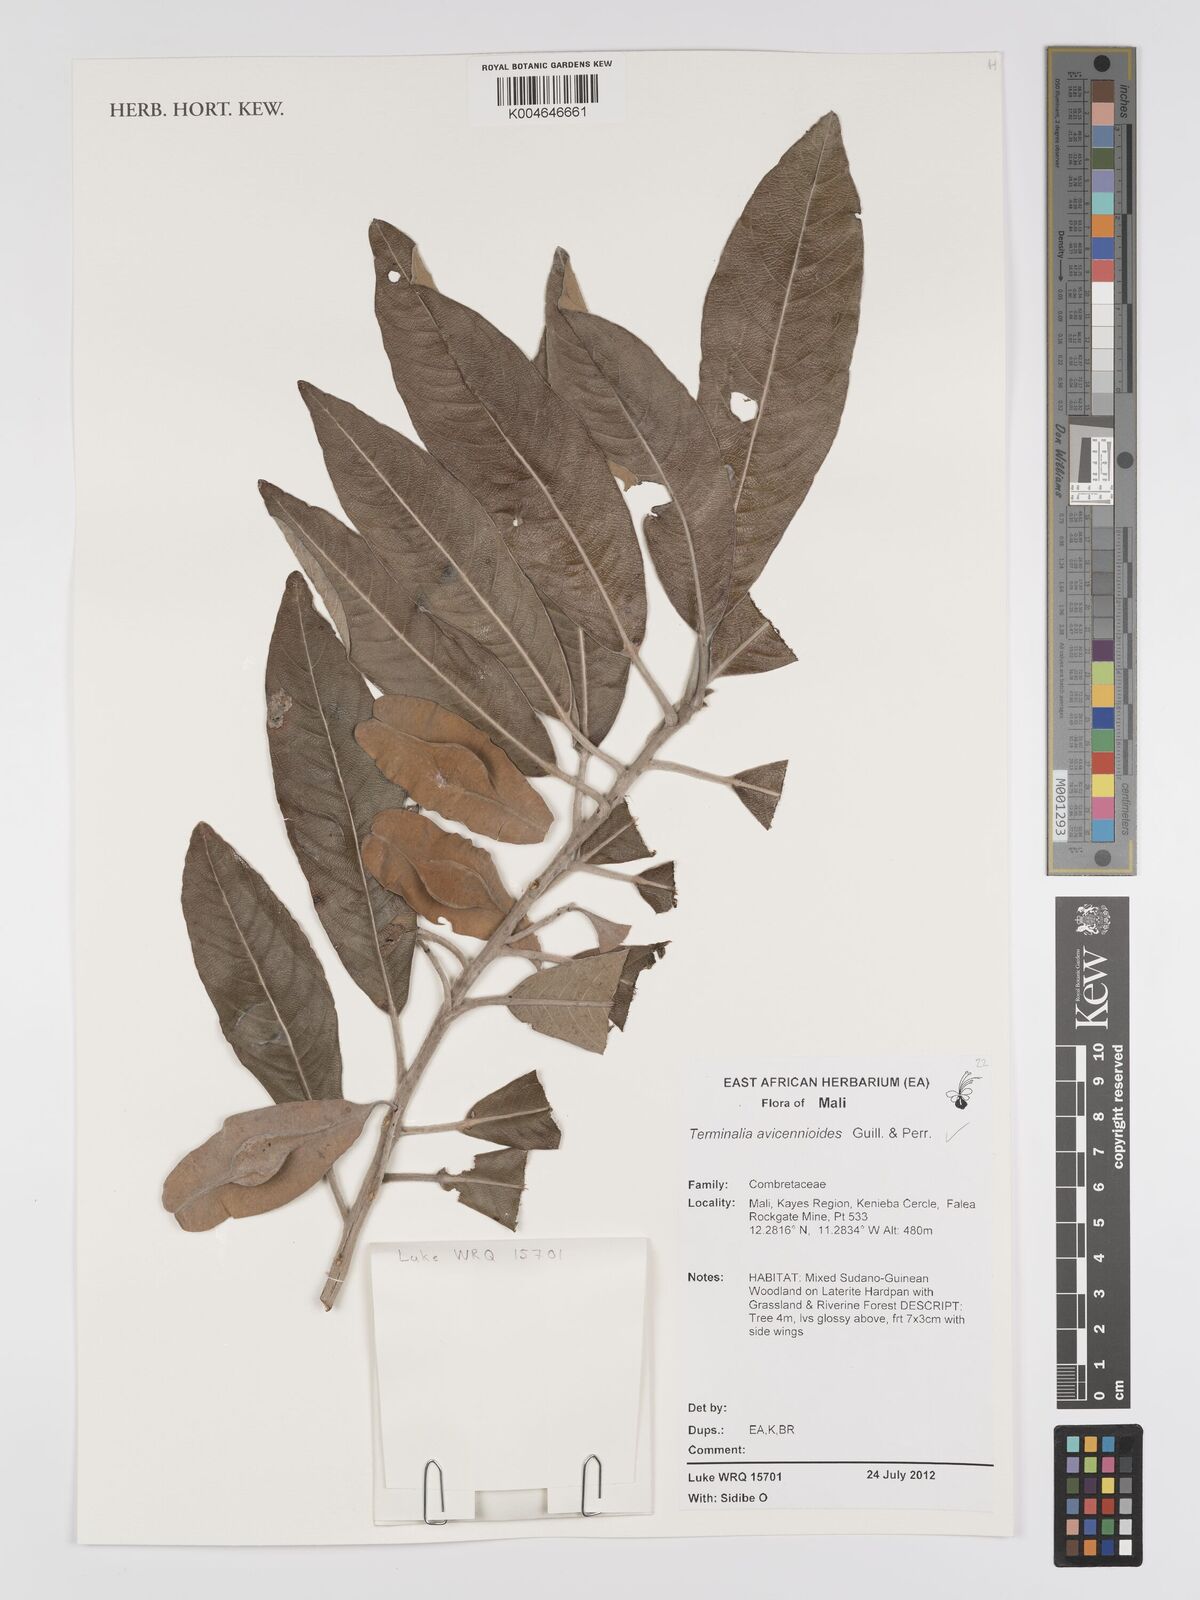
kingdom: Plantae
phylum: Tracheophyta
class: Magnoliopsida
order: Myrtales
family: Combretaceae
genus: Terminalia
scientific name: Terminalia avicennioides
